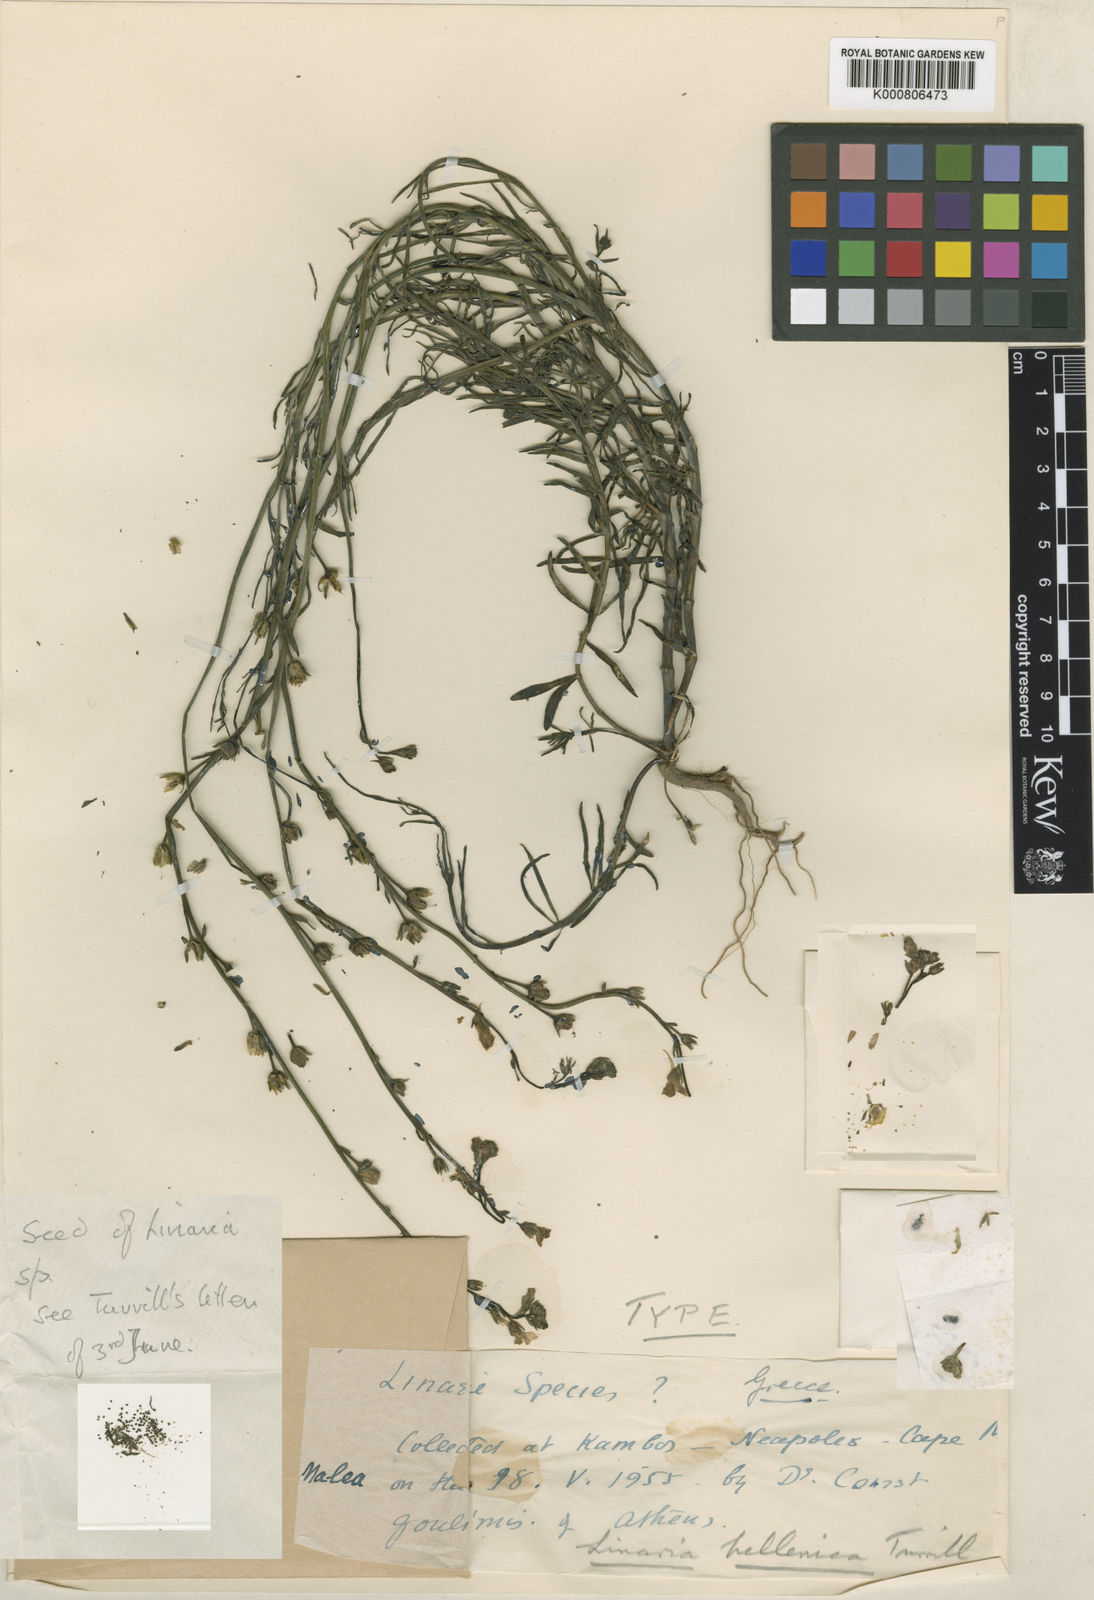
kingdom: Plantae
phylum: Tracheophyta
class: Magnoliopsida
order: Lamiales
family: Plantaginaceae
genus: Linaria
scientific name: Linaria tenuis
